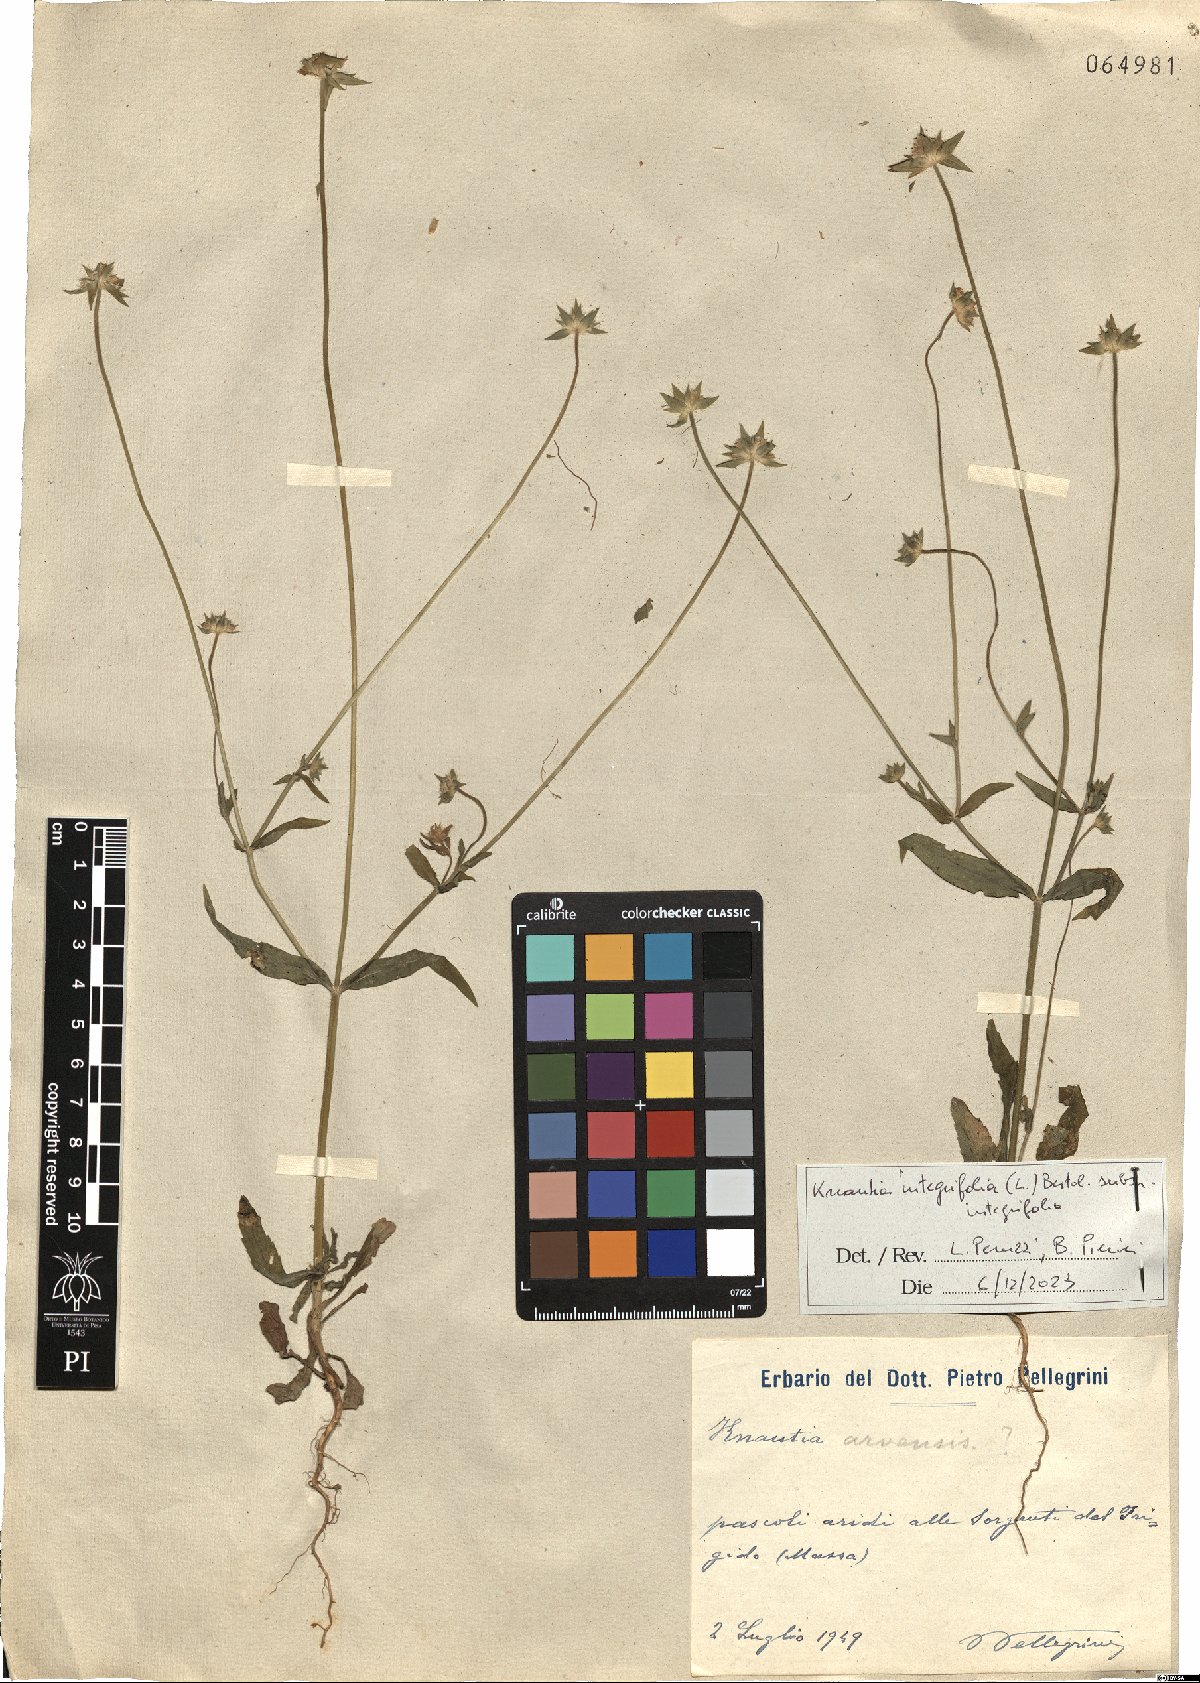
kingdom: Plantae
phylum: Tracheophyta
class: Magnoliopsida
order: Dipsacales
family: Caprifoliaceae
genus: Knautia
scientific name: Knautia integrifolia
